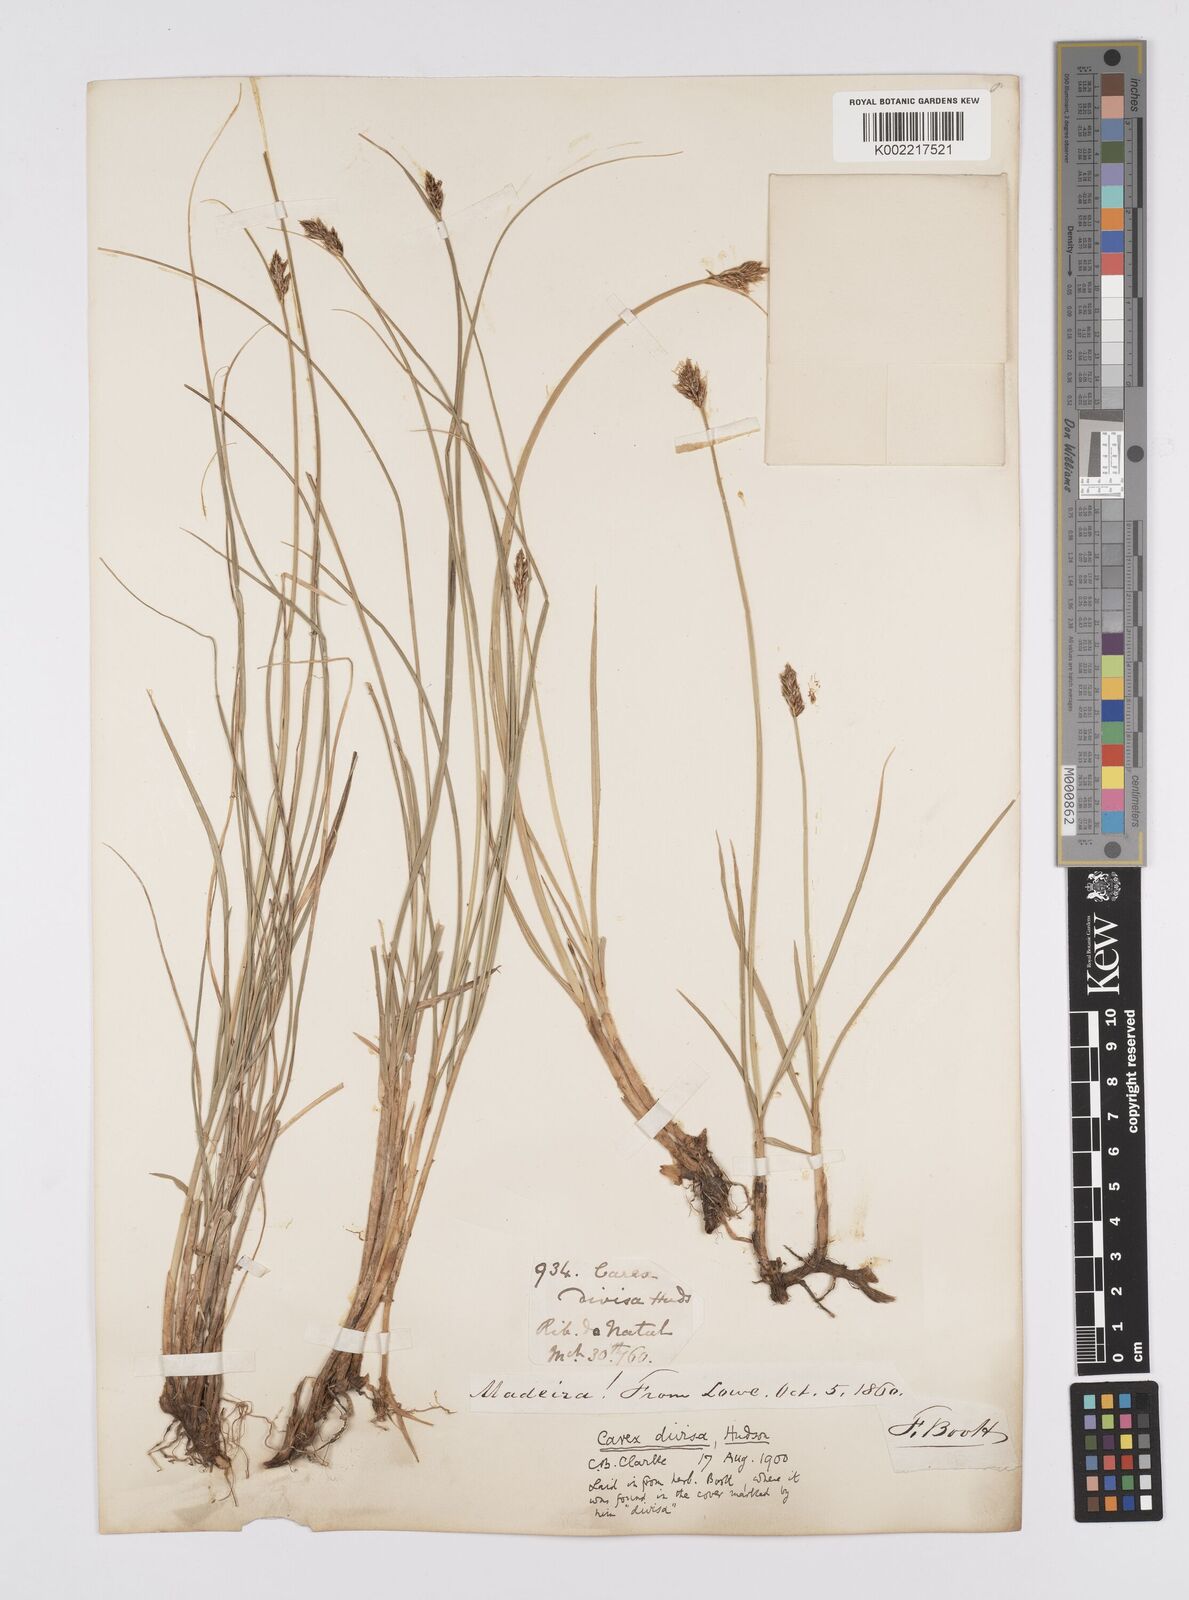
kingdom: Plantae
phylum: Tracheophyta
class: Liliopsida
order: Poales
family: Cyperaceae
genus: Carex
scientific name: Carex divisa
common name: Divided sedge
